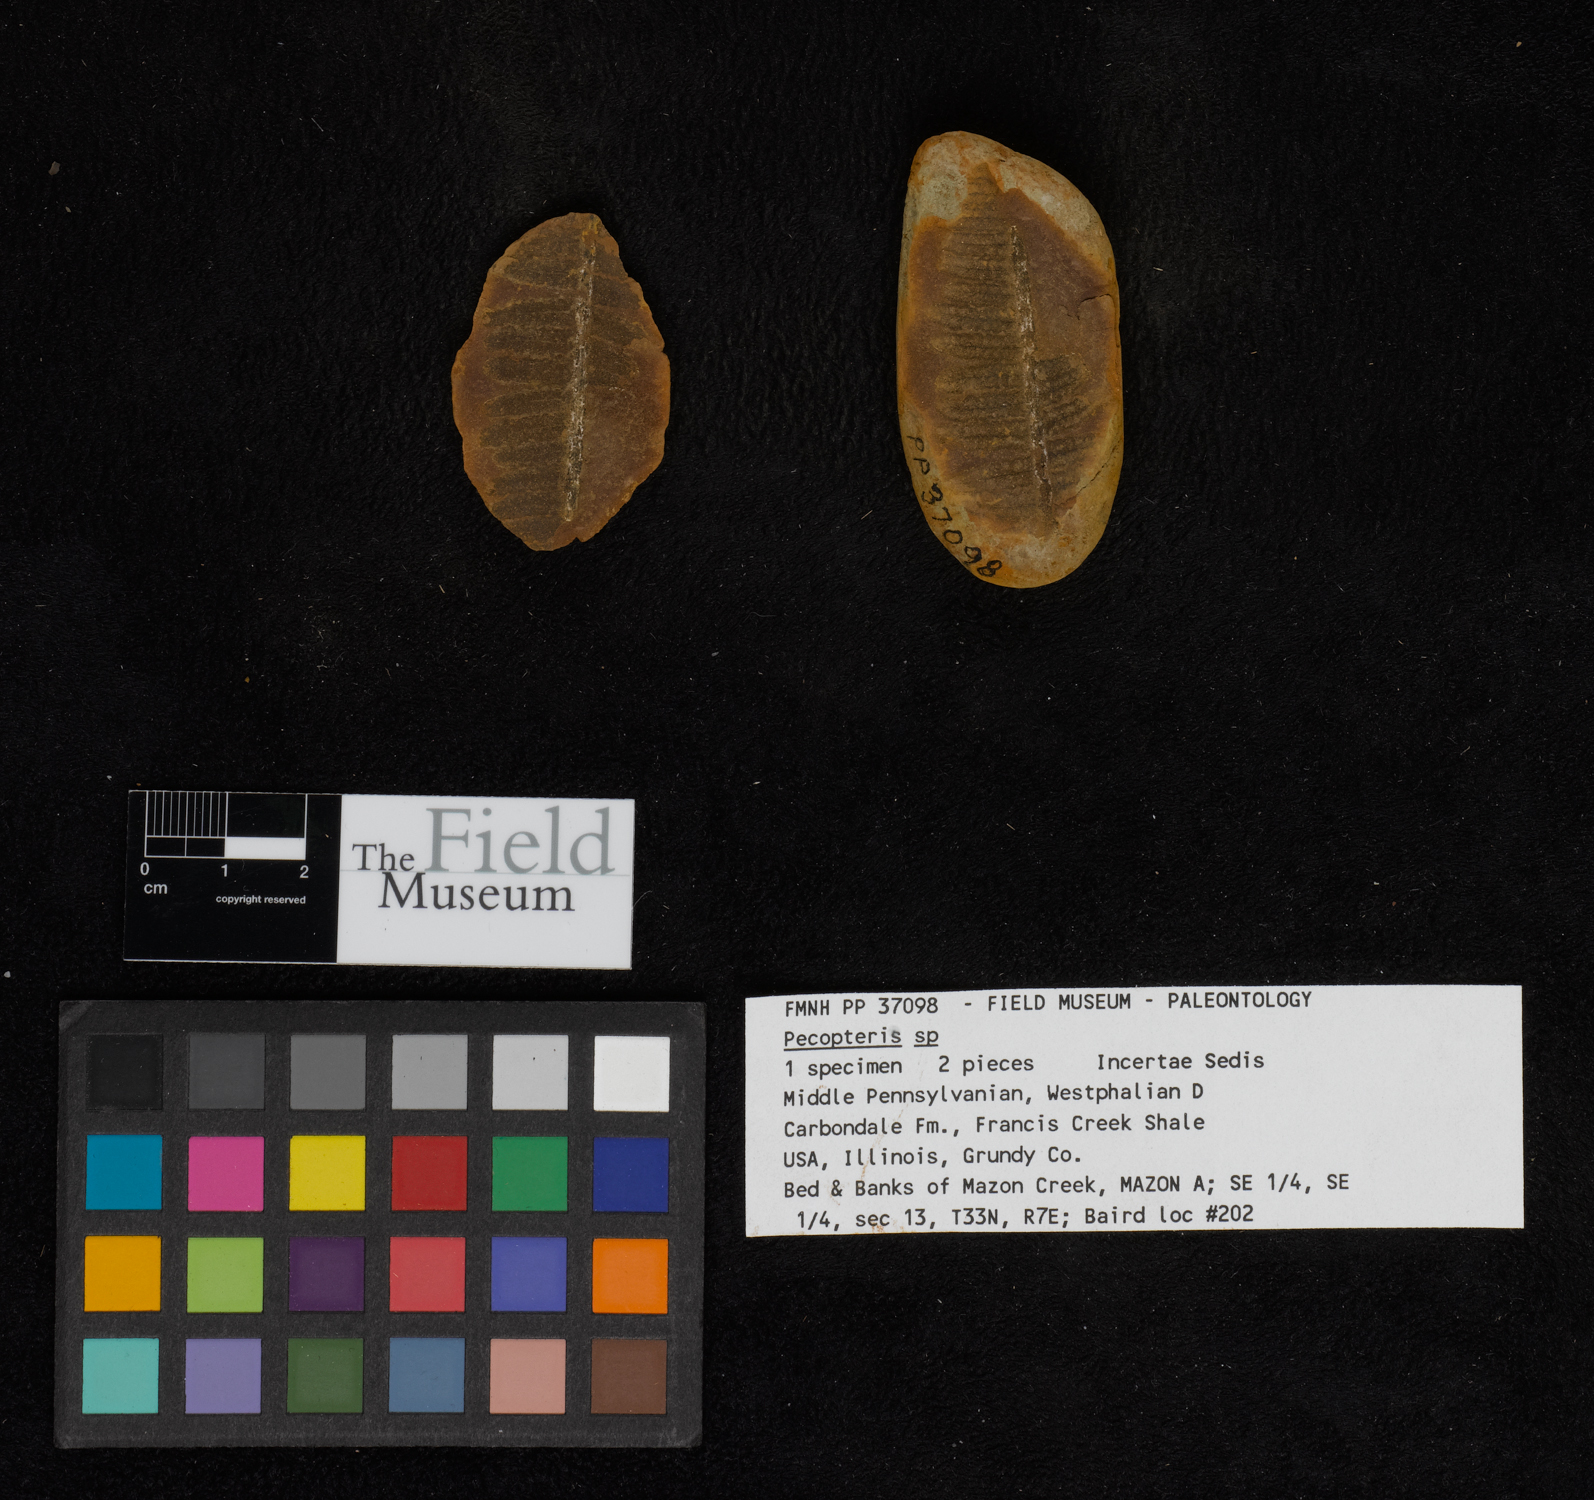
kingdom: Plantae
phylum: Tracheophyta
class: Polypodiopsida
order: Marattiales
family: Asterothecaceae
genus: Pecopteris
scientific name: Pecopteris
